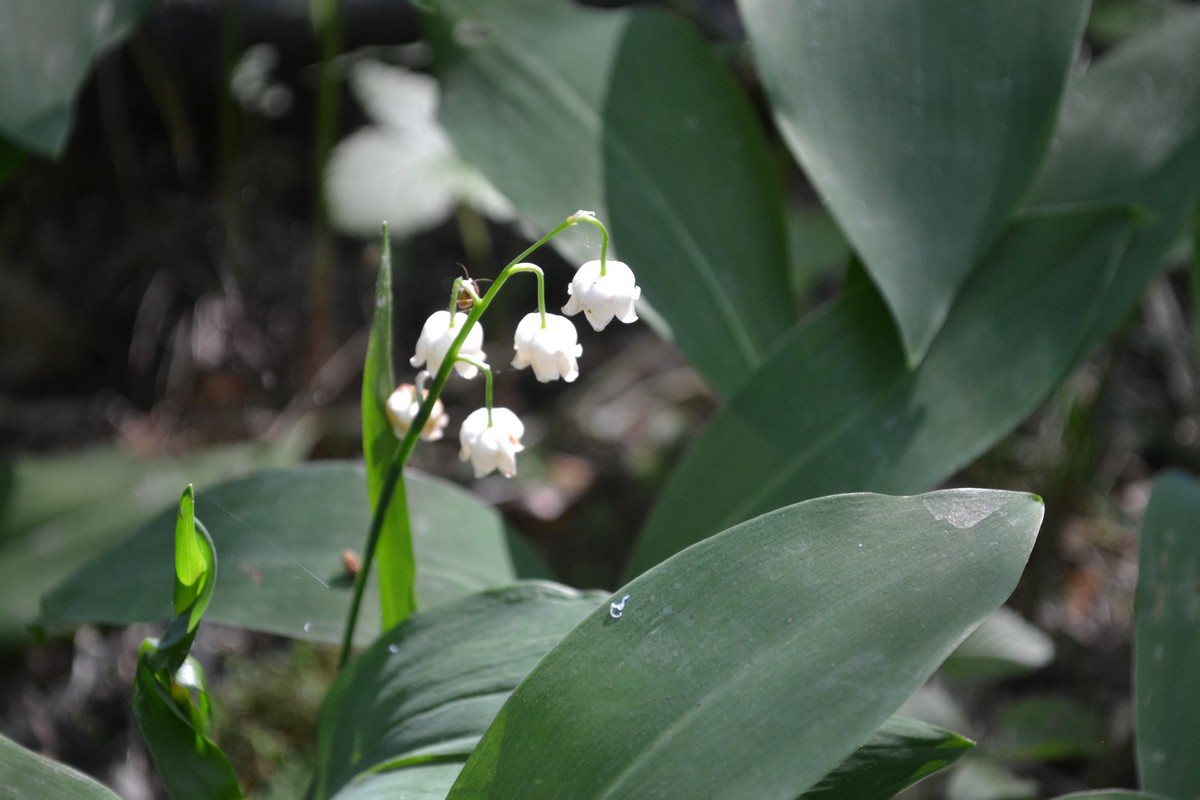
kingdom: Plantae
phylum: Tracheophyta
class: Liliopsida
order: Asparagales
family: Asparagaceae
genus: Convallaria
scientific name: Convallaria majalis
